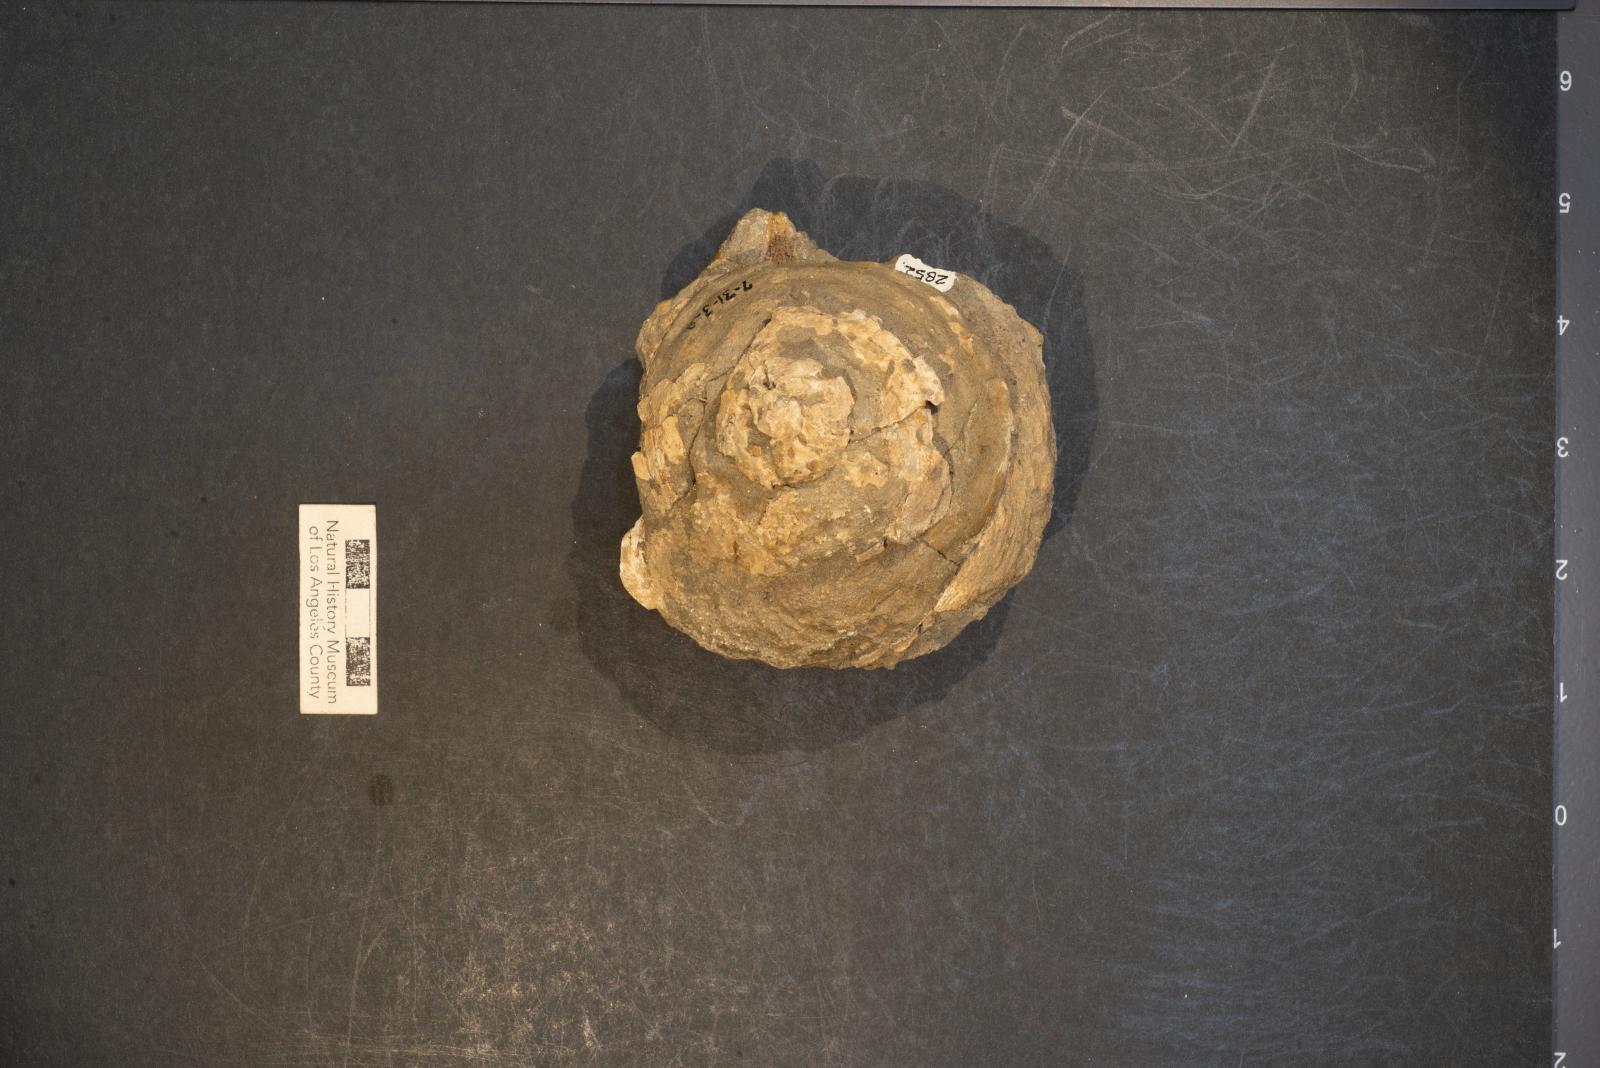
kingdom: Animalia
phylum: Mollusca
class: Gastropoda
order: Littorinimorpha
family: Xenophoridae
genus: Xenophora
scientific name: Xenophora hermax
